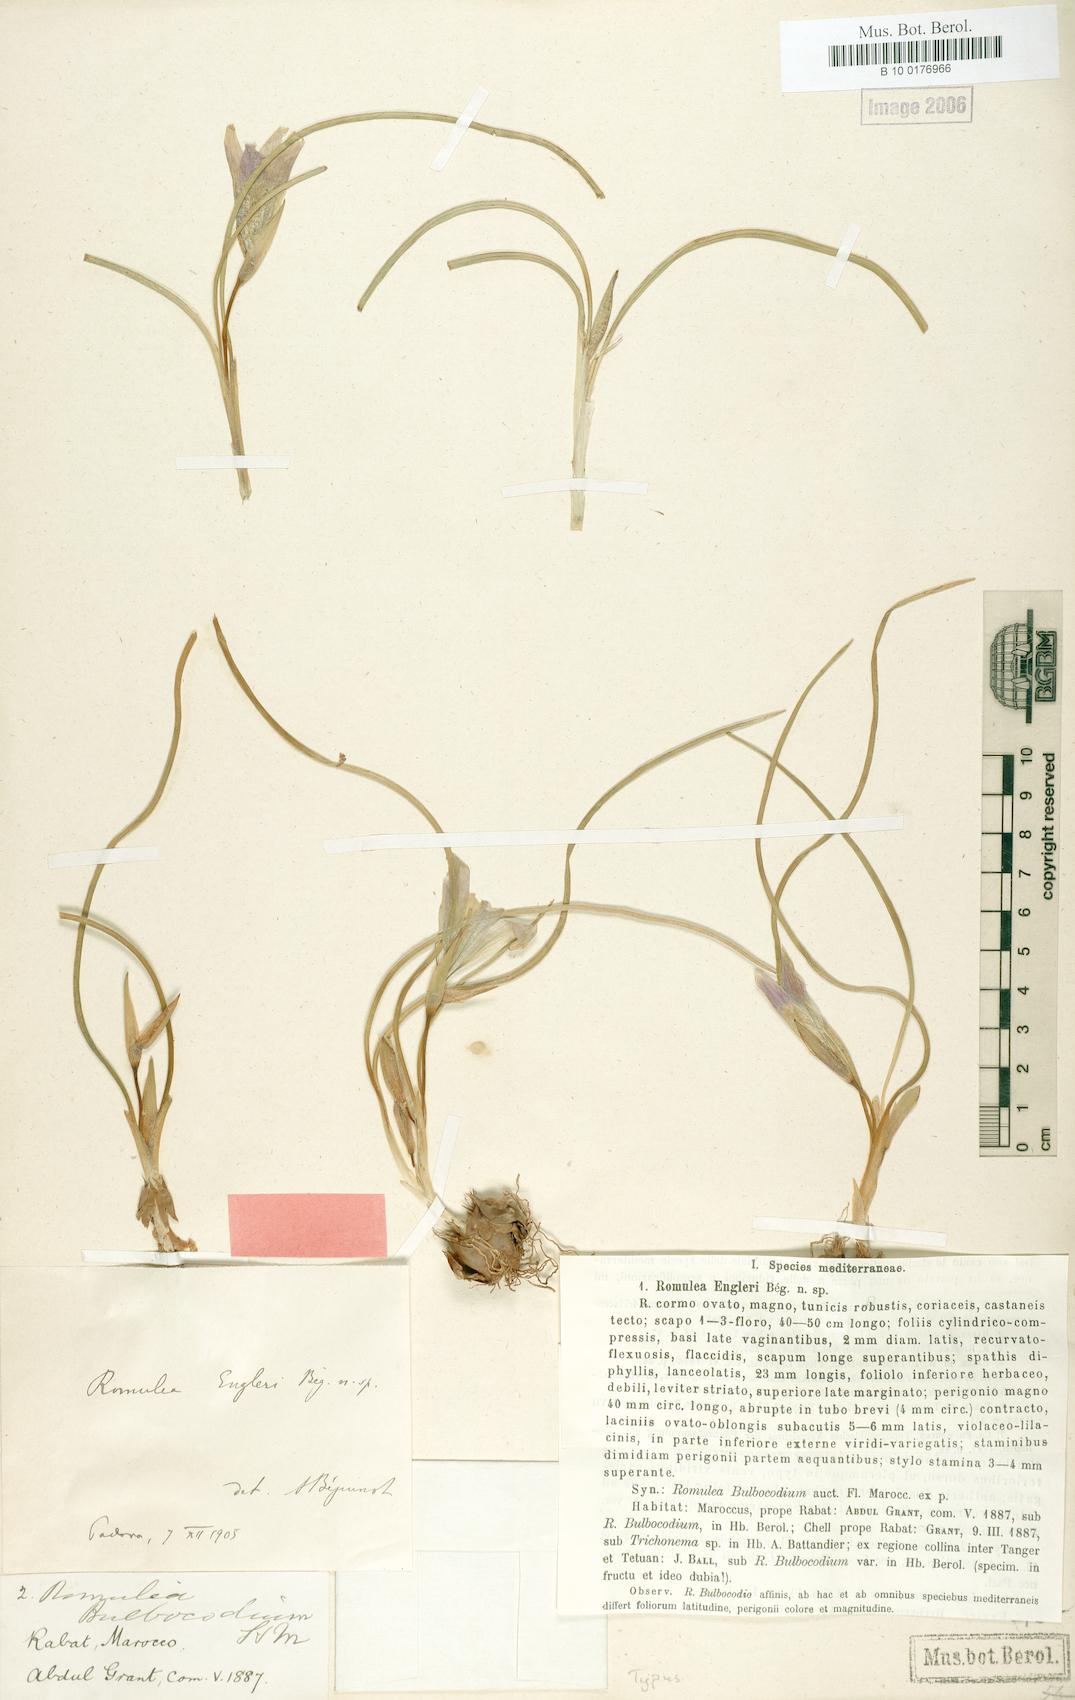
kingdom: Plantae
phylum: Tracheophyta
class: Liliopsida
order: Asparagales
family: Iridaceae
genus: Romulea
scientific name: Romulea engleri
